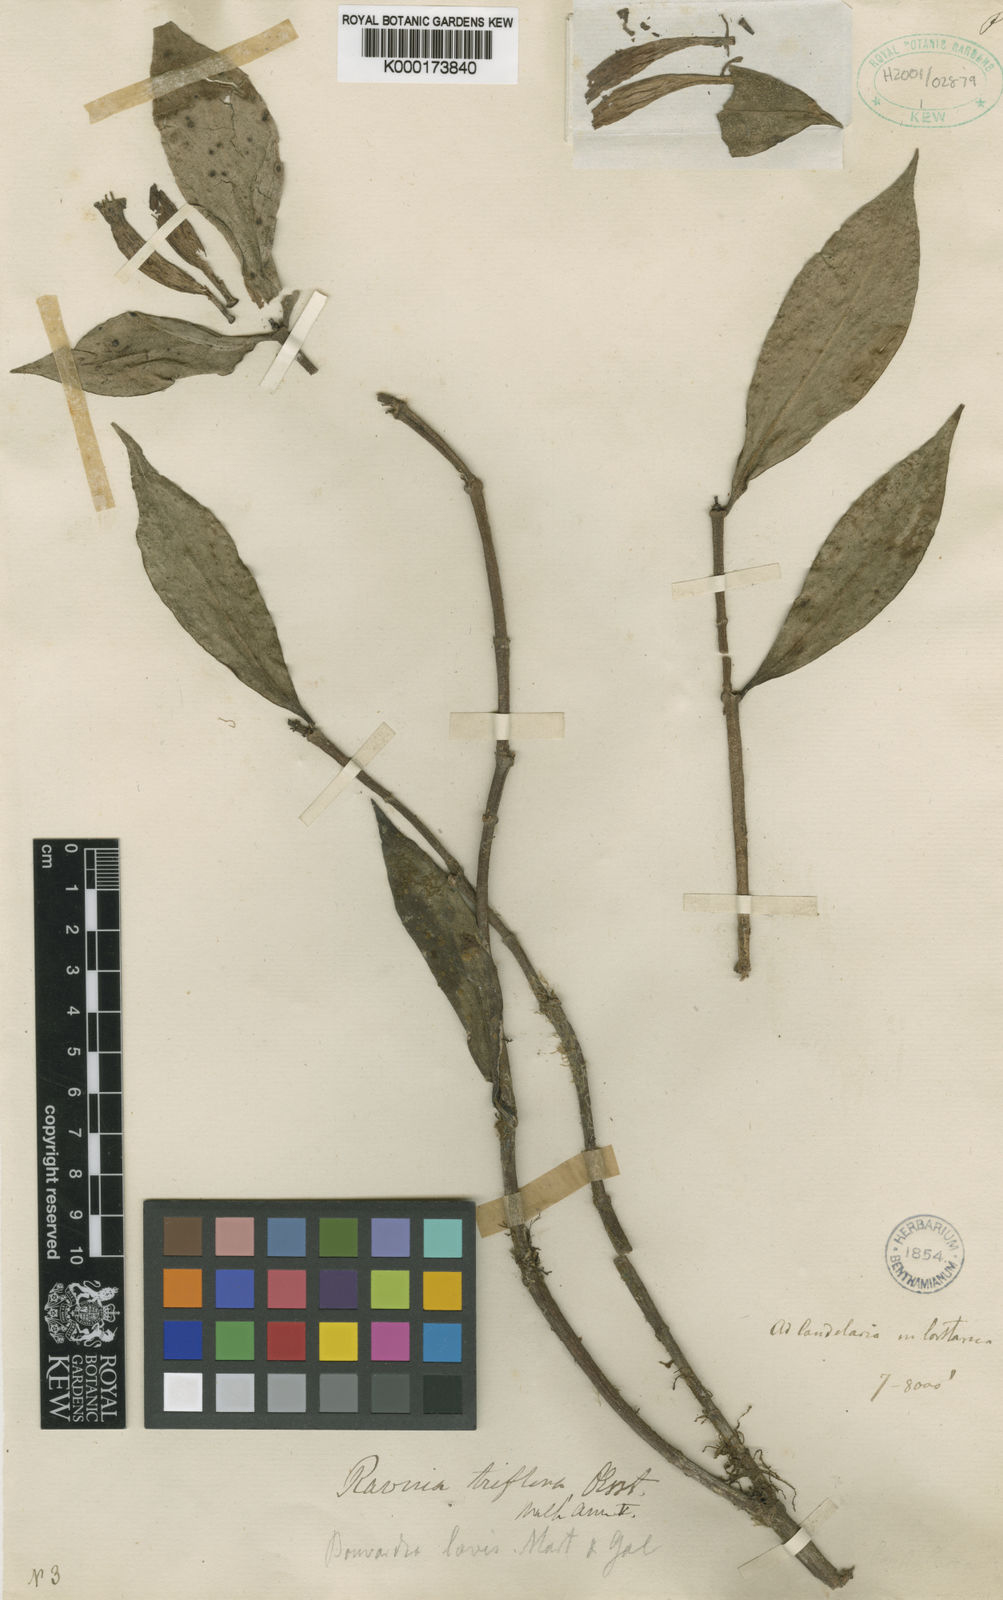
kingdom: Plantae
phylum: Tracheophyta
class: Magnoliopsida
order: Gentianales
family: Rubiaceae
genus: Hillia
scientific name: Hillia triflora
